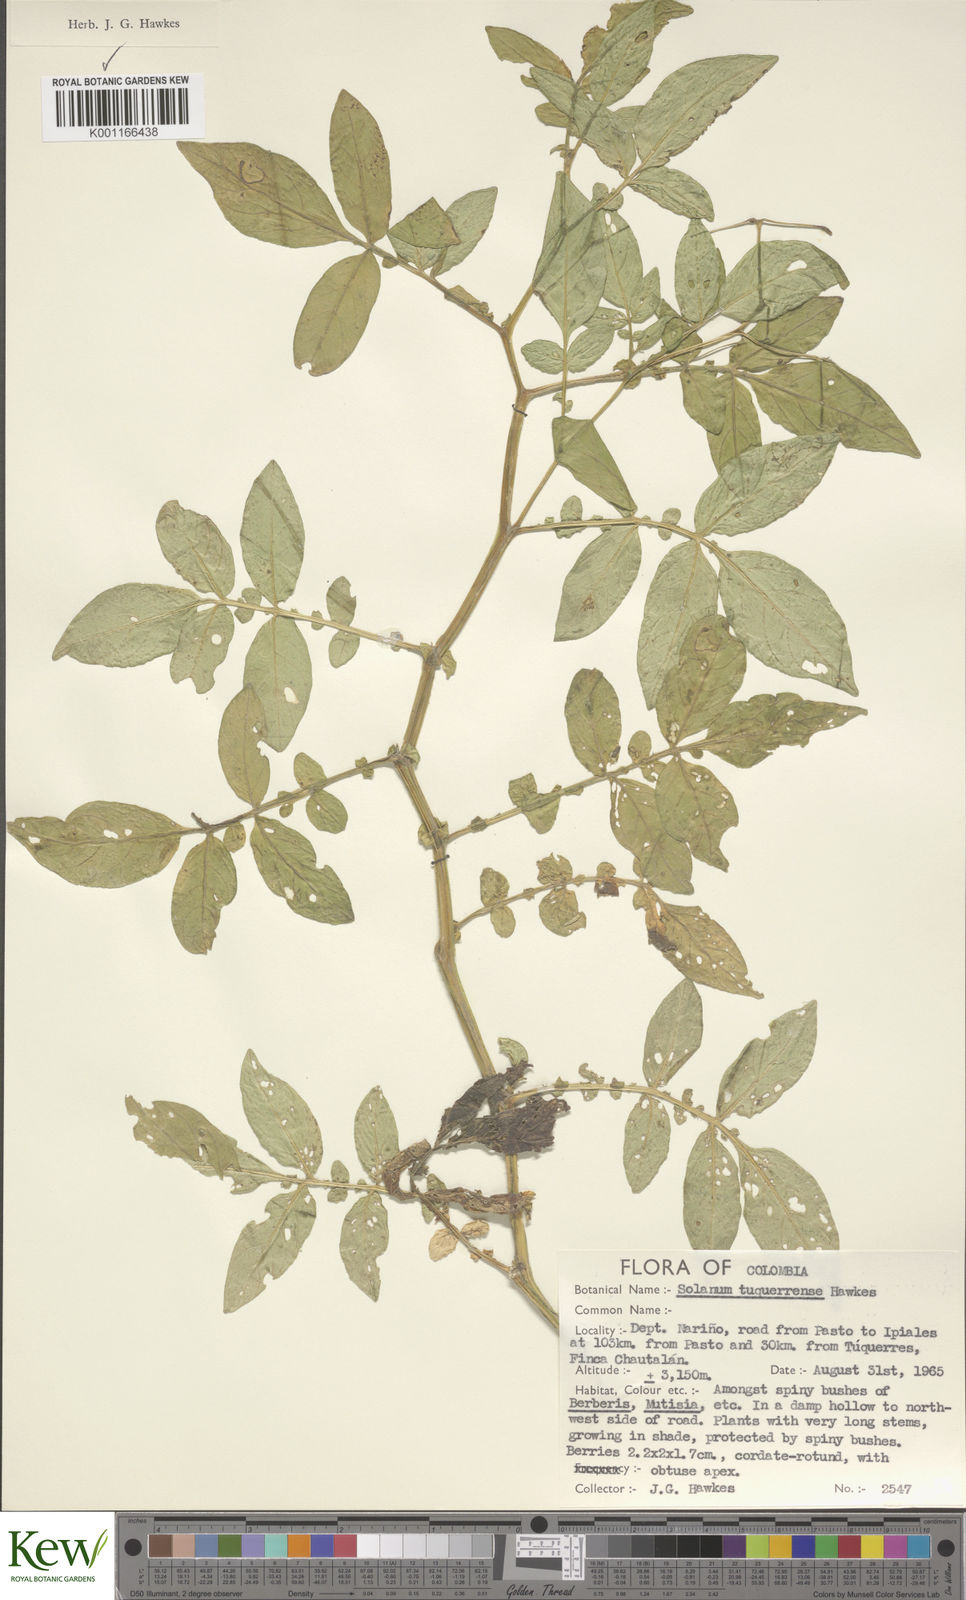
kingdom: Plantae
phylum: Tracheophyta
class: Magnoliopsida
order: Solanales
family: Solanaceae
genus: Solanum
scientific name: Solanum andreanum
